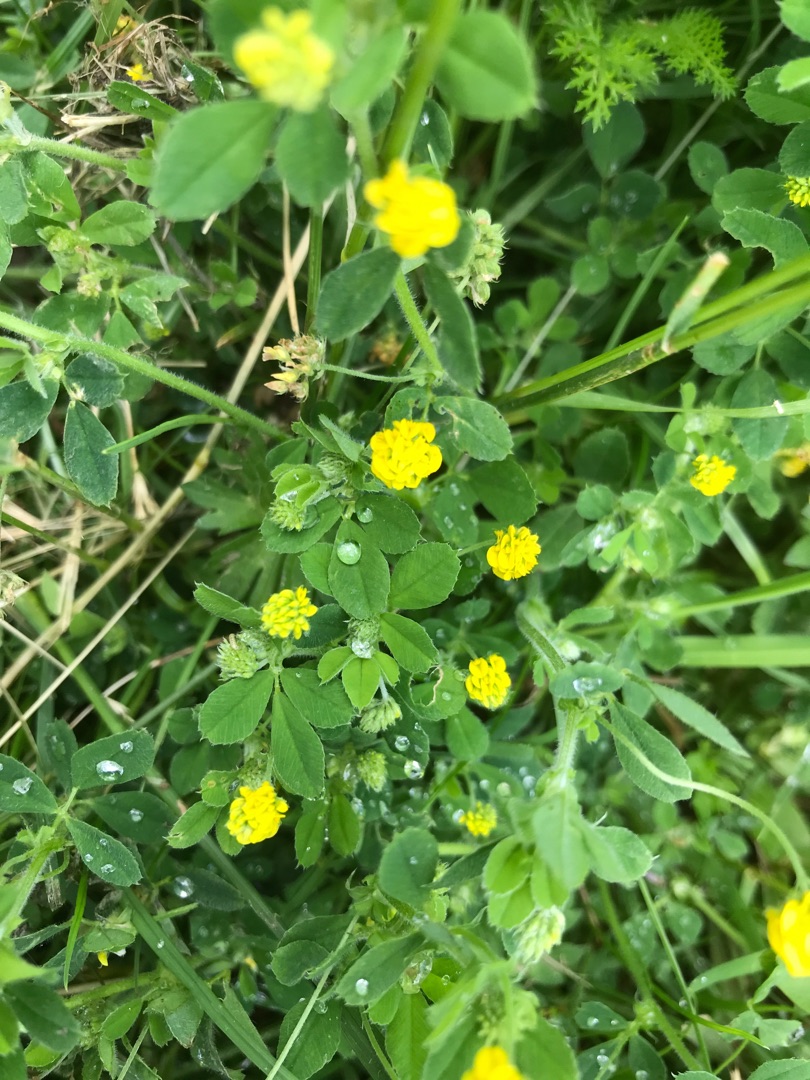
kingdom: Plantae
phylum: Tracheophyta
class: Magnoliopsida
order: Fabales
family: Fabaceae
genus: Medicago
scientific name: Medicago lupulina
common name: Humle-sneglebælg
